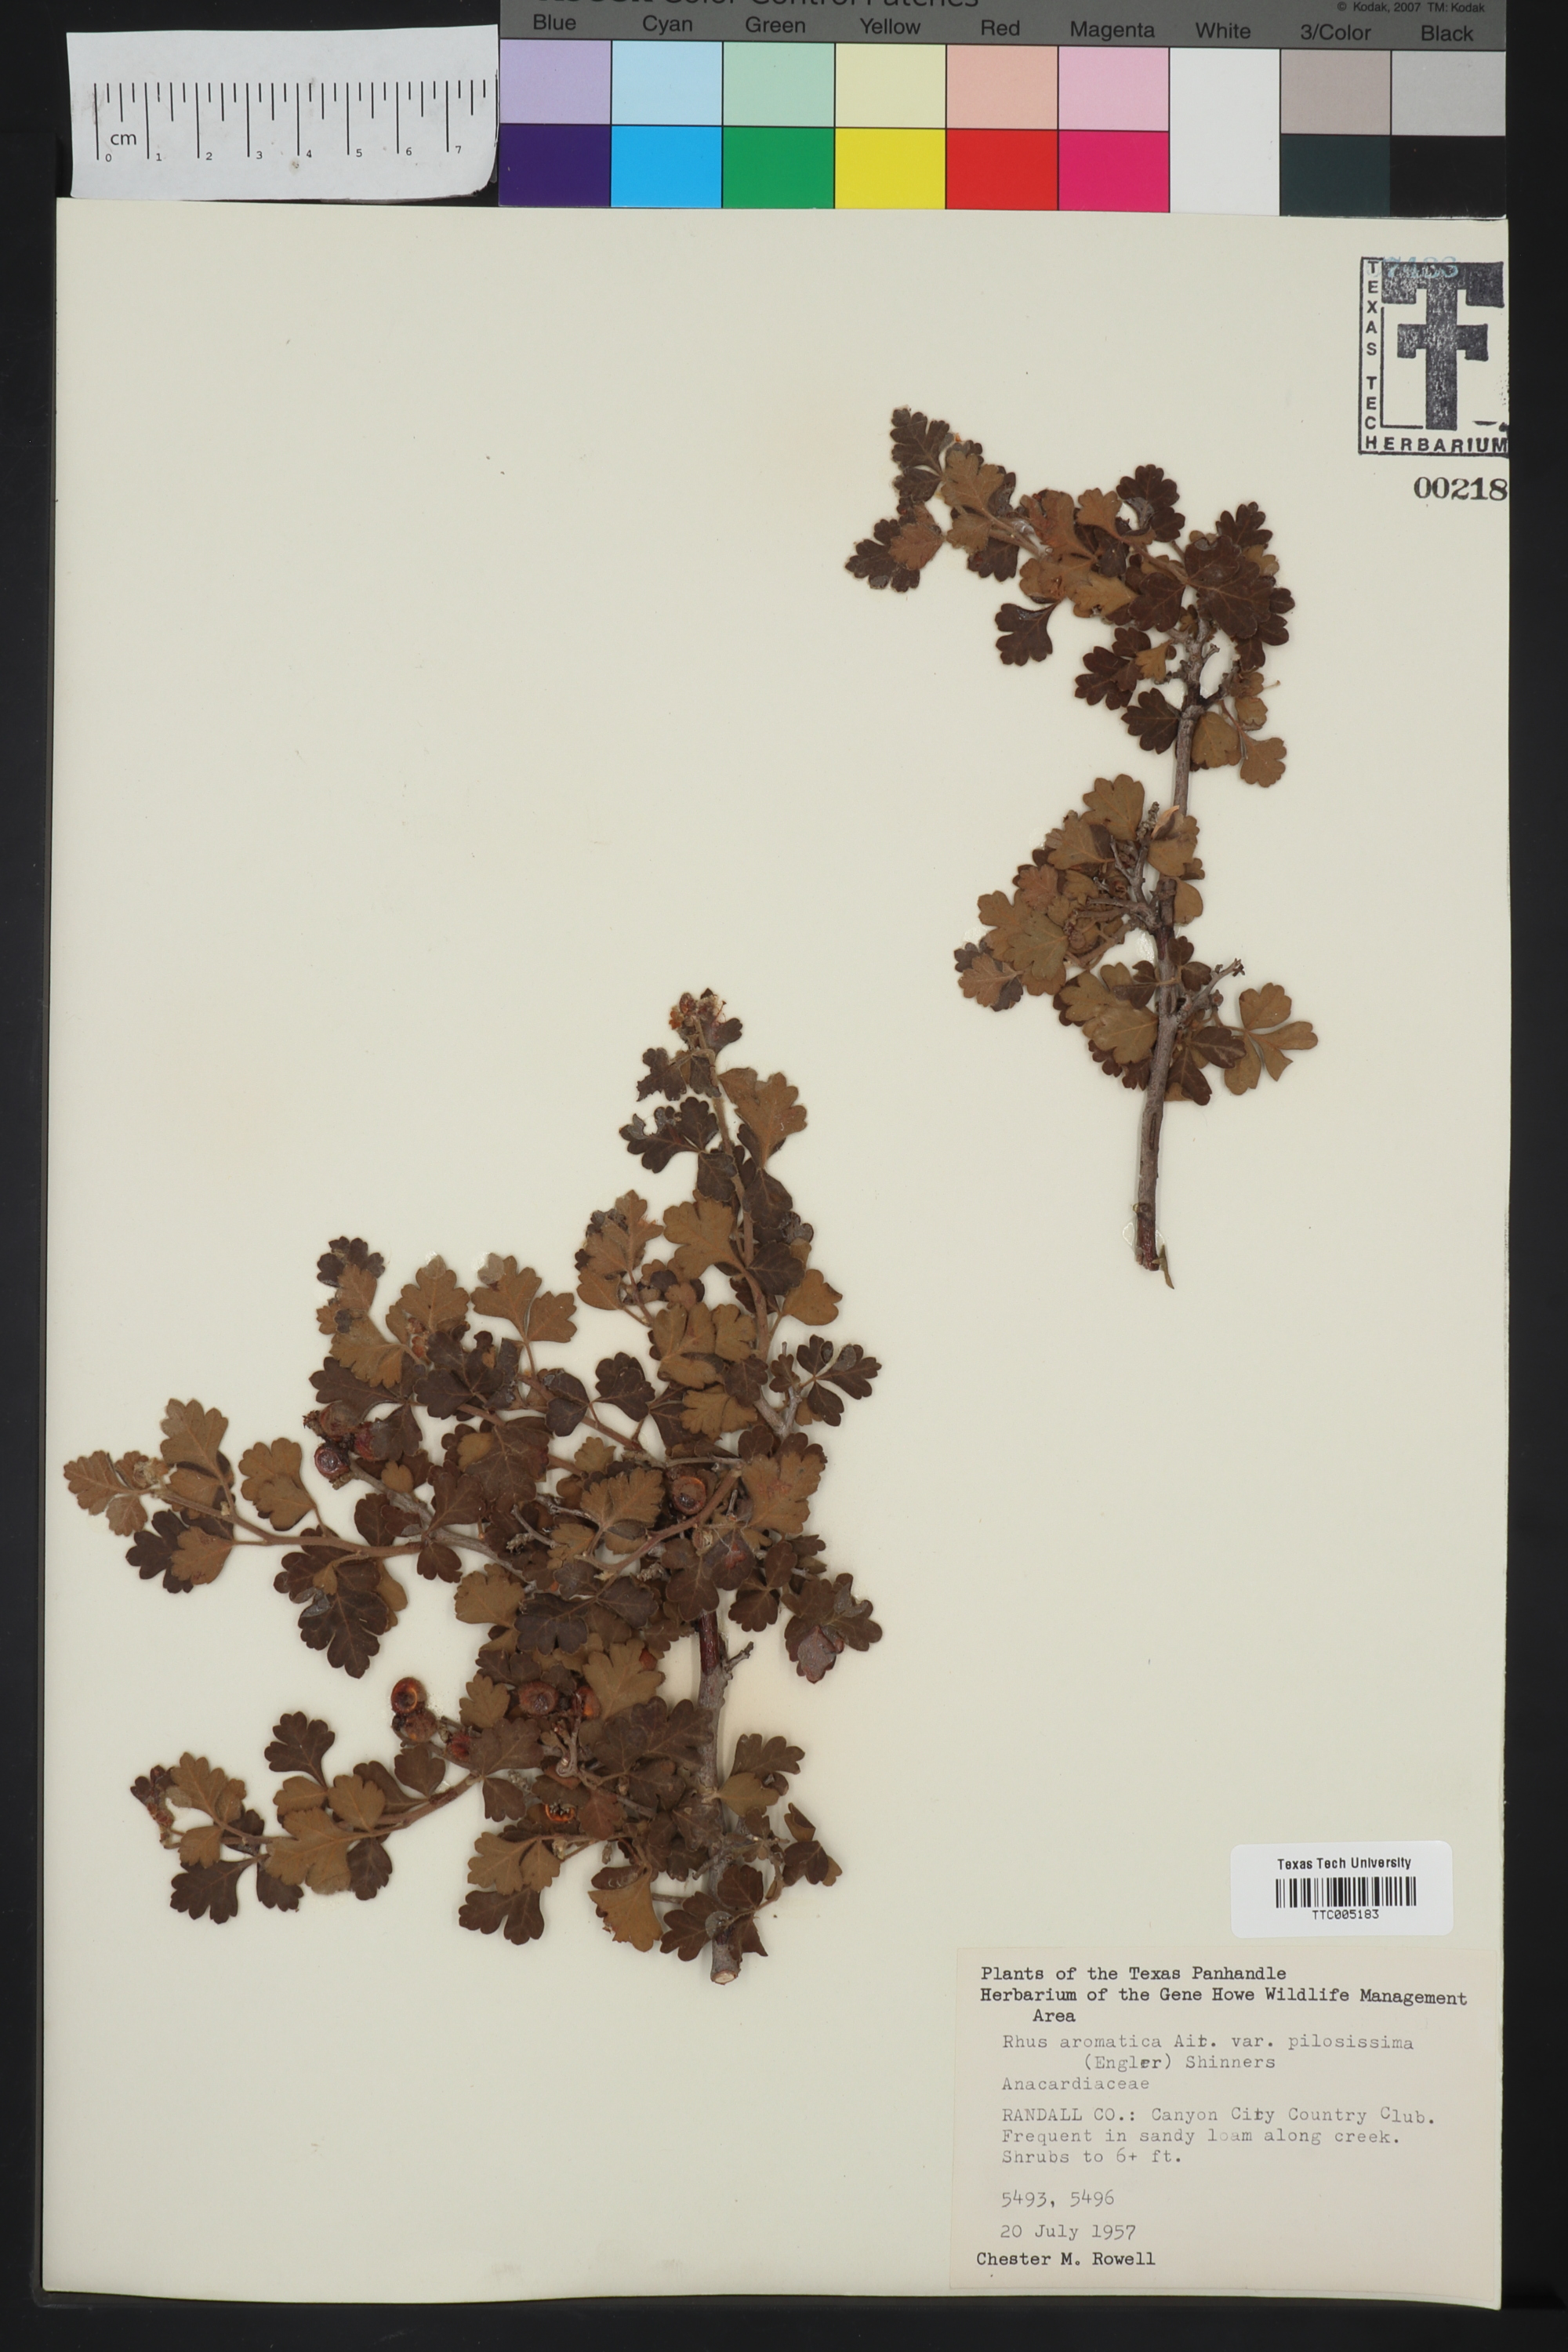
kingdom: Plantae
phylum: Tracheophyta
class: Magnoliopsida
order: Sapindales
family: Anacardiaceae
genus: Rhus
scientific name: Rhus trilobata
